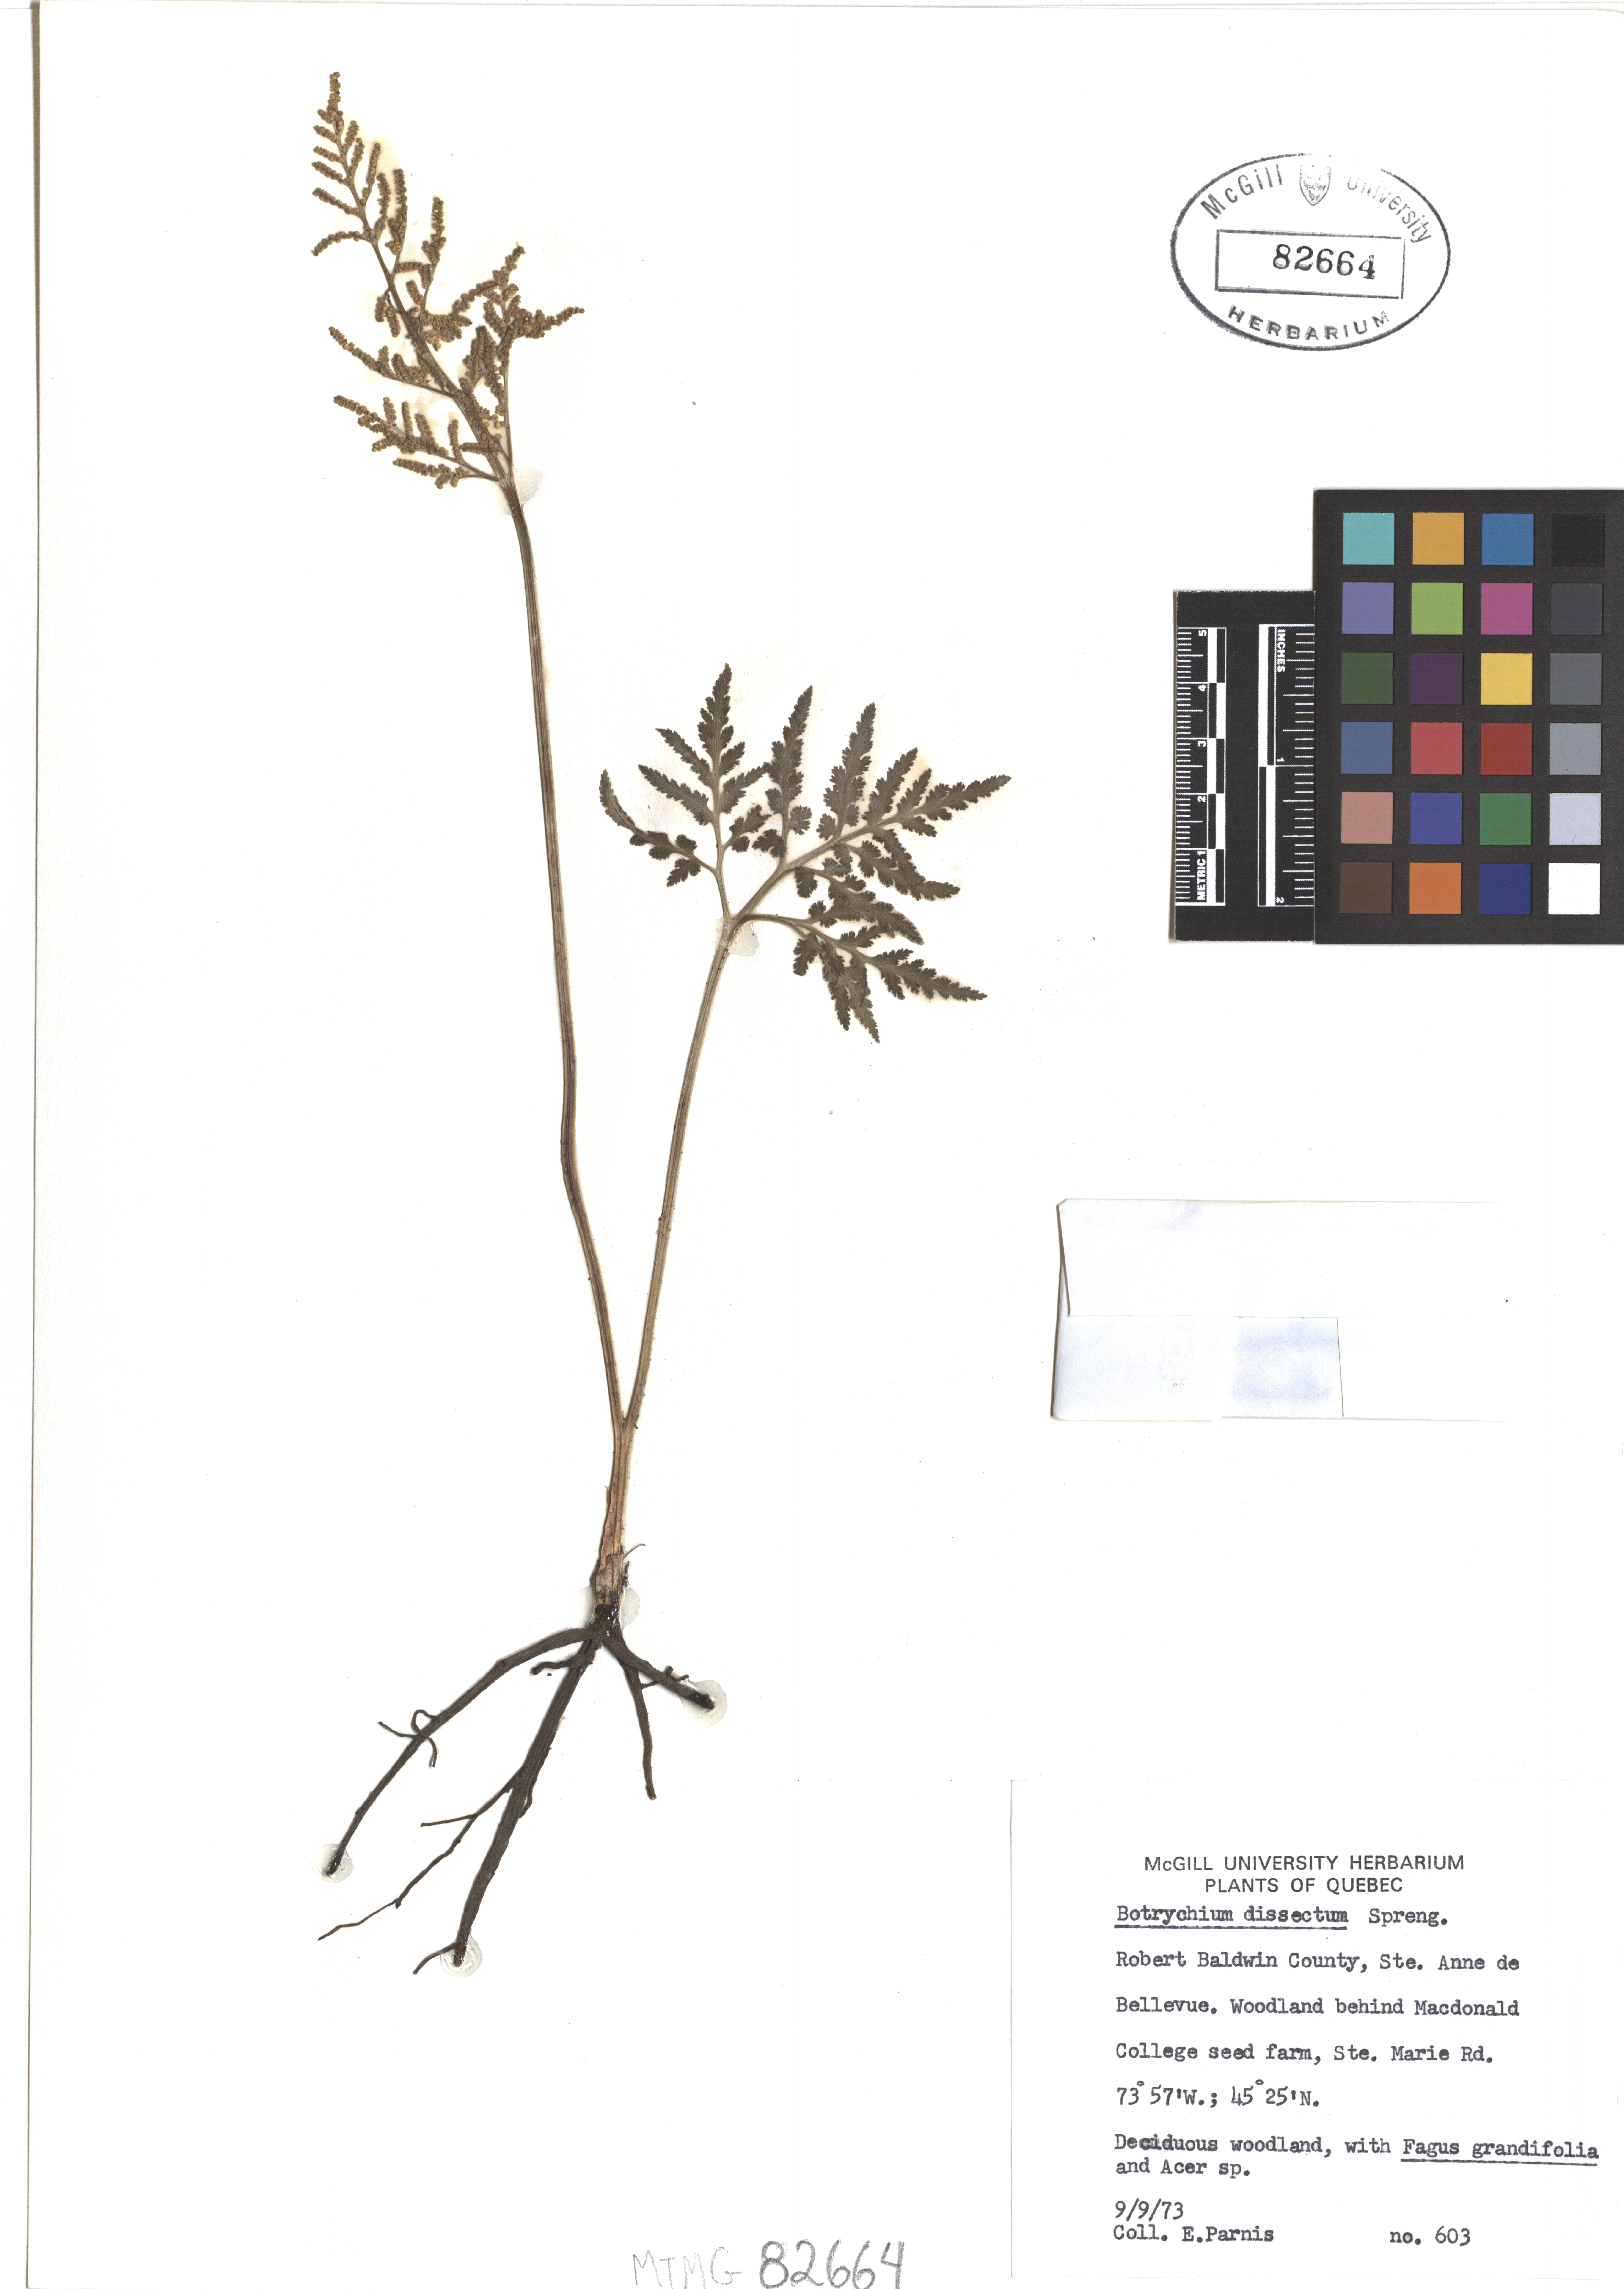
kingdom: Plantae
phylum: Tracheophyta
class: Polypodiopsida
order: Ophioglossales
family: Ophioglossaceae
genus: Sceptridium
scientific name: Sceptridium dissectum
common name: Cut-leaved grapefern
